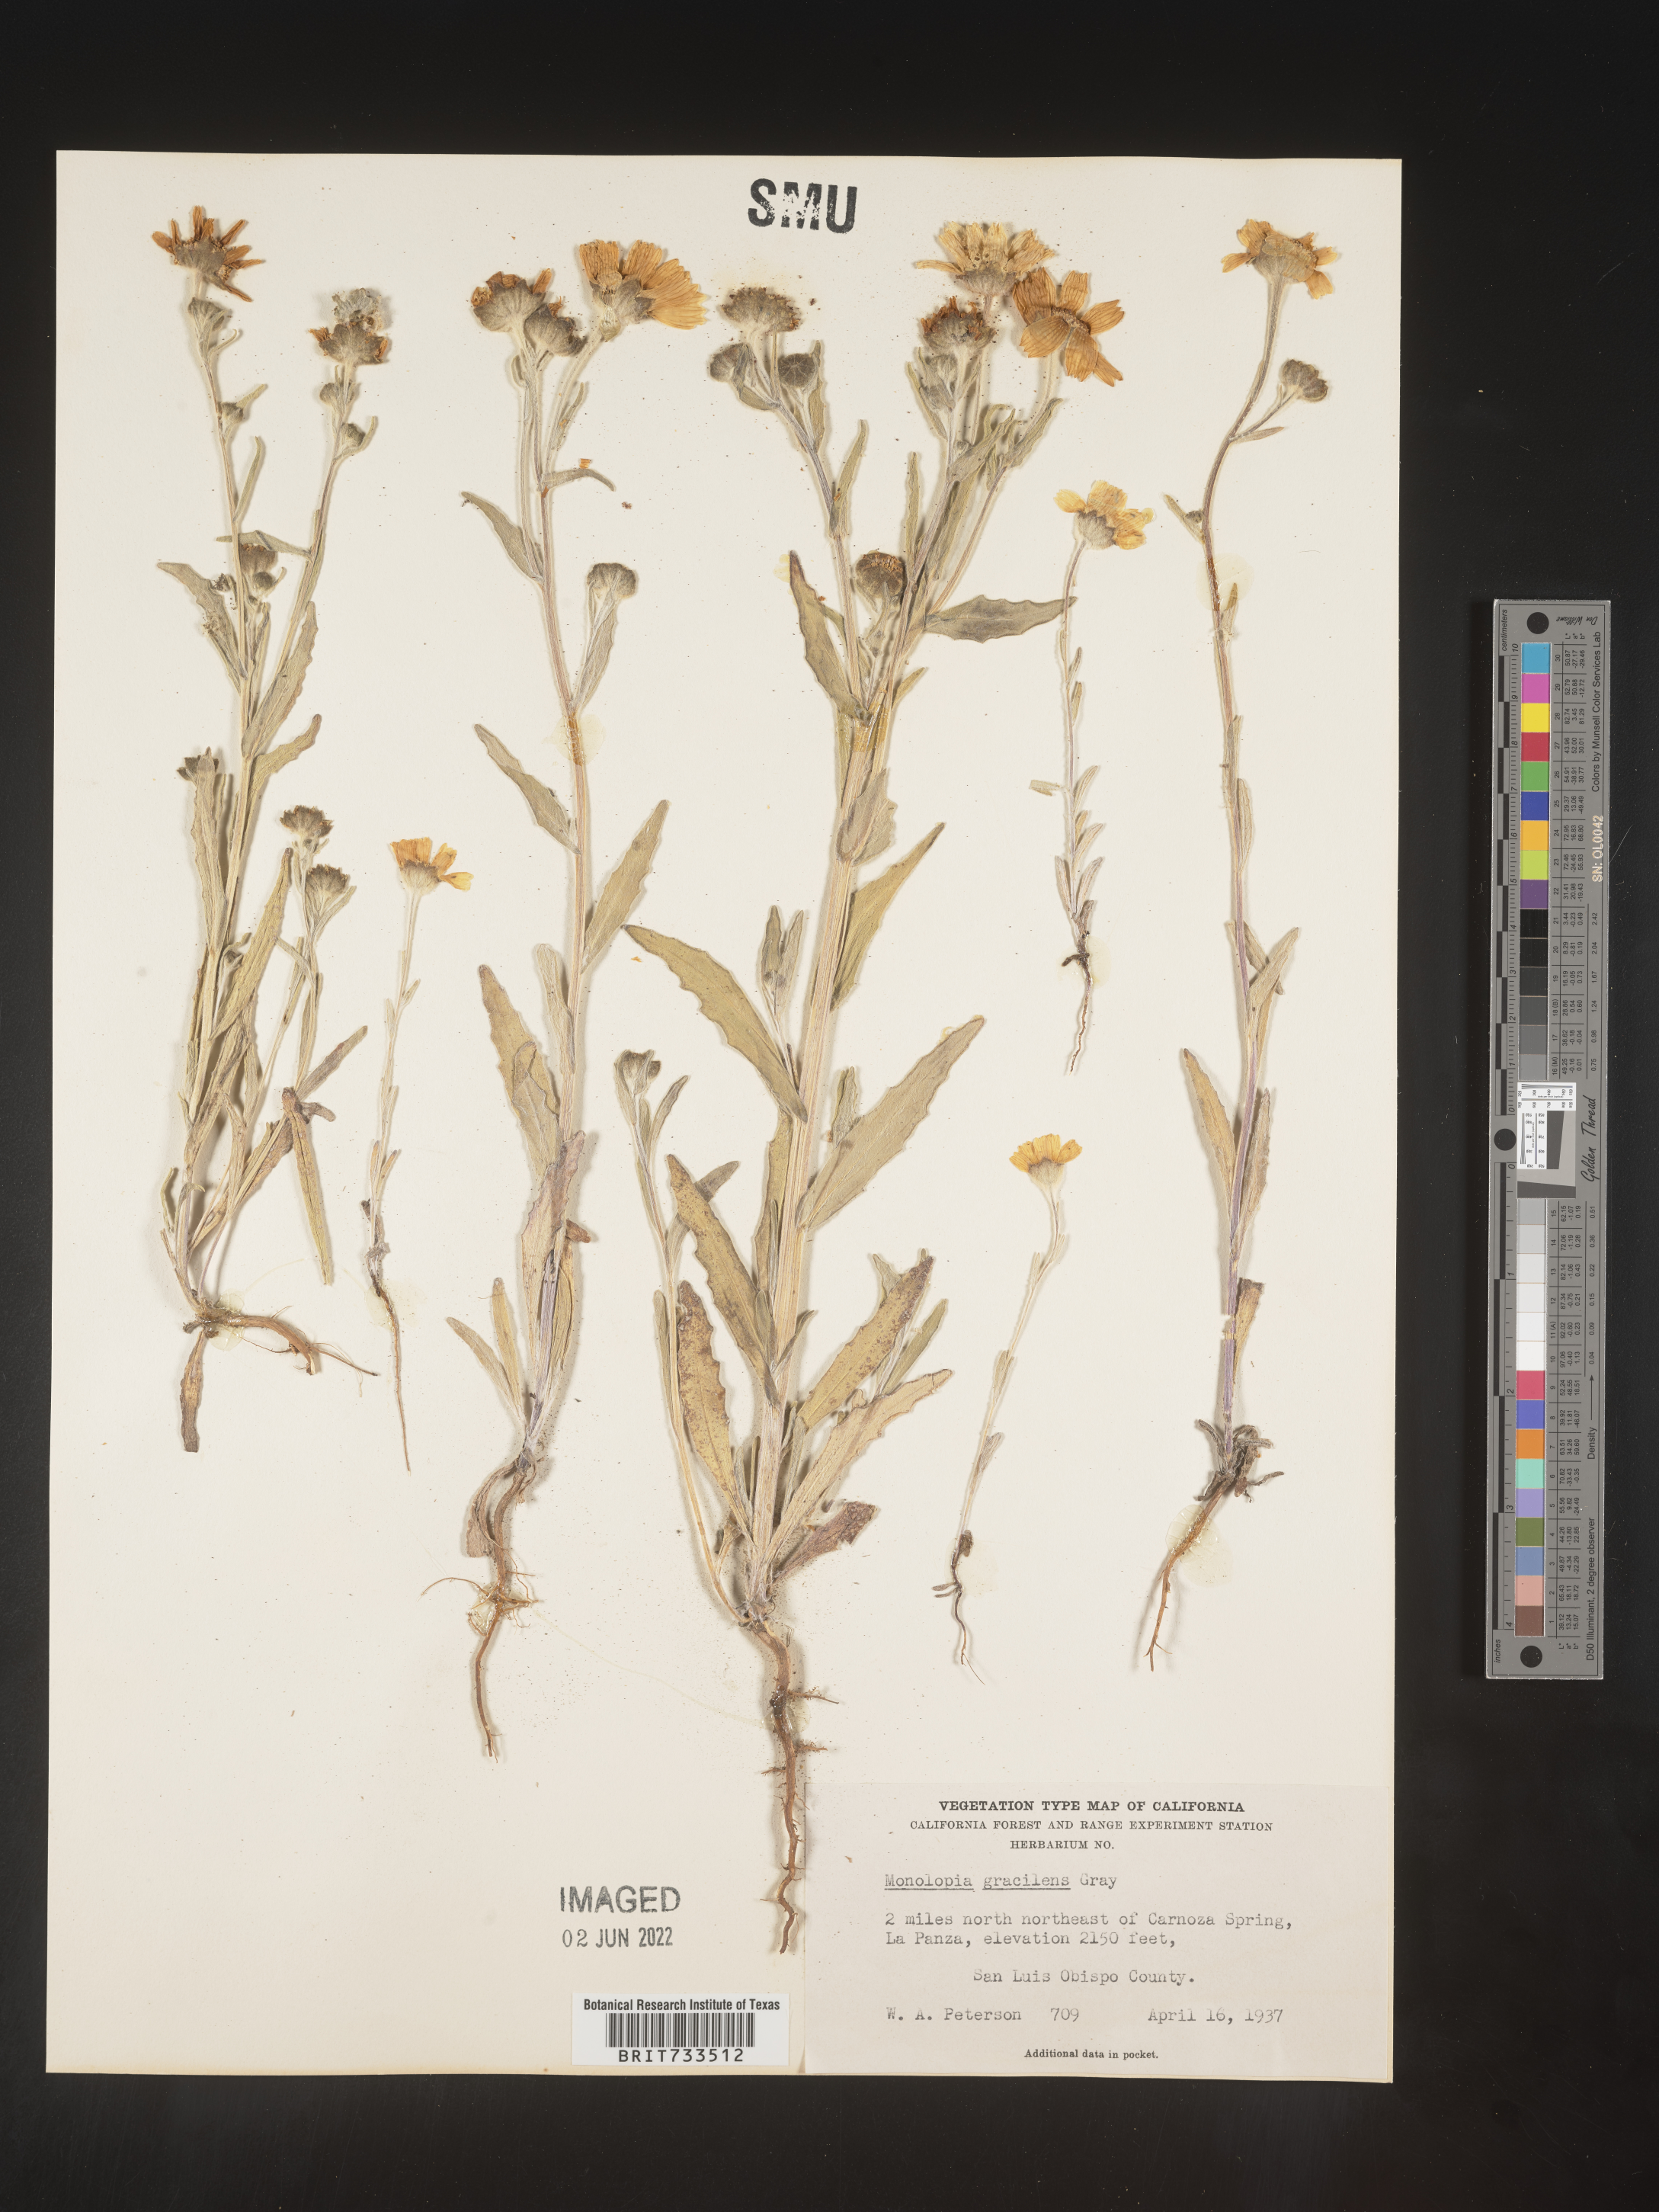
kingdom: Plantae
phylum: Tracheophyta
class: Magnoliopsida
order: Asterales
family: Asteraceae
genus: Monolopia
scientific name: Monolopia gracilens
